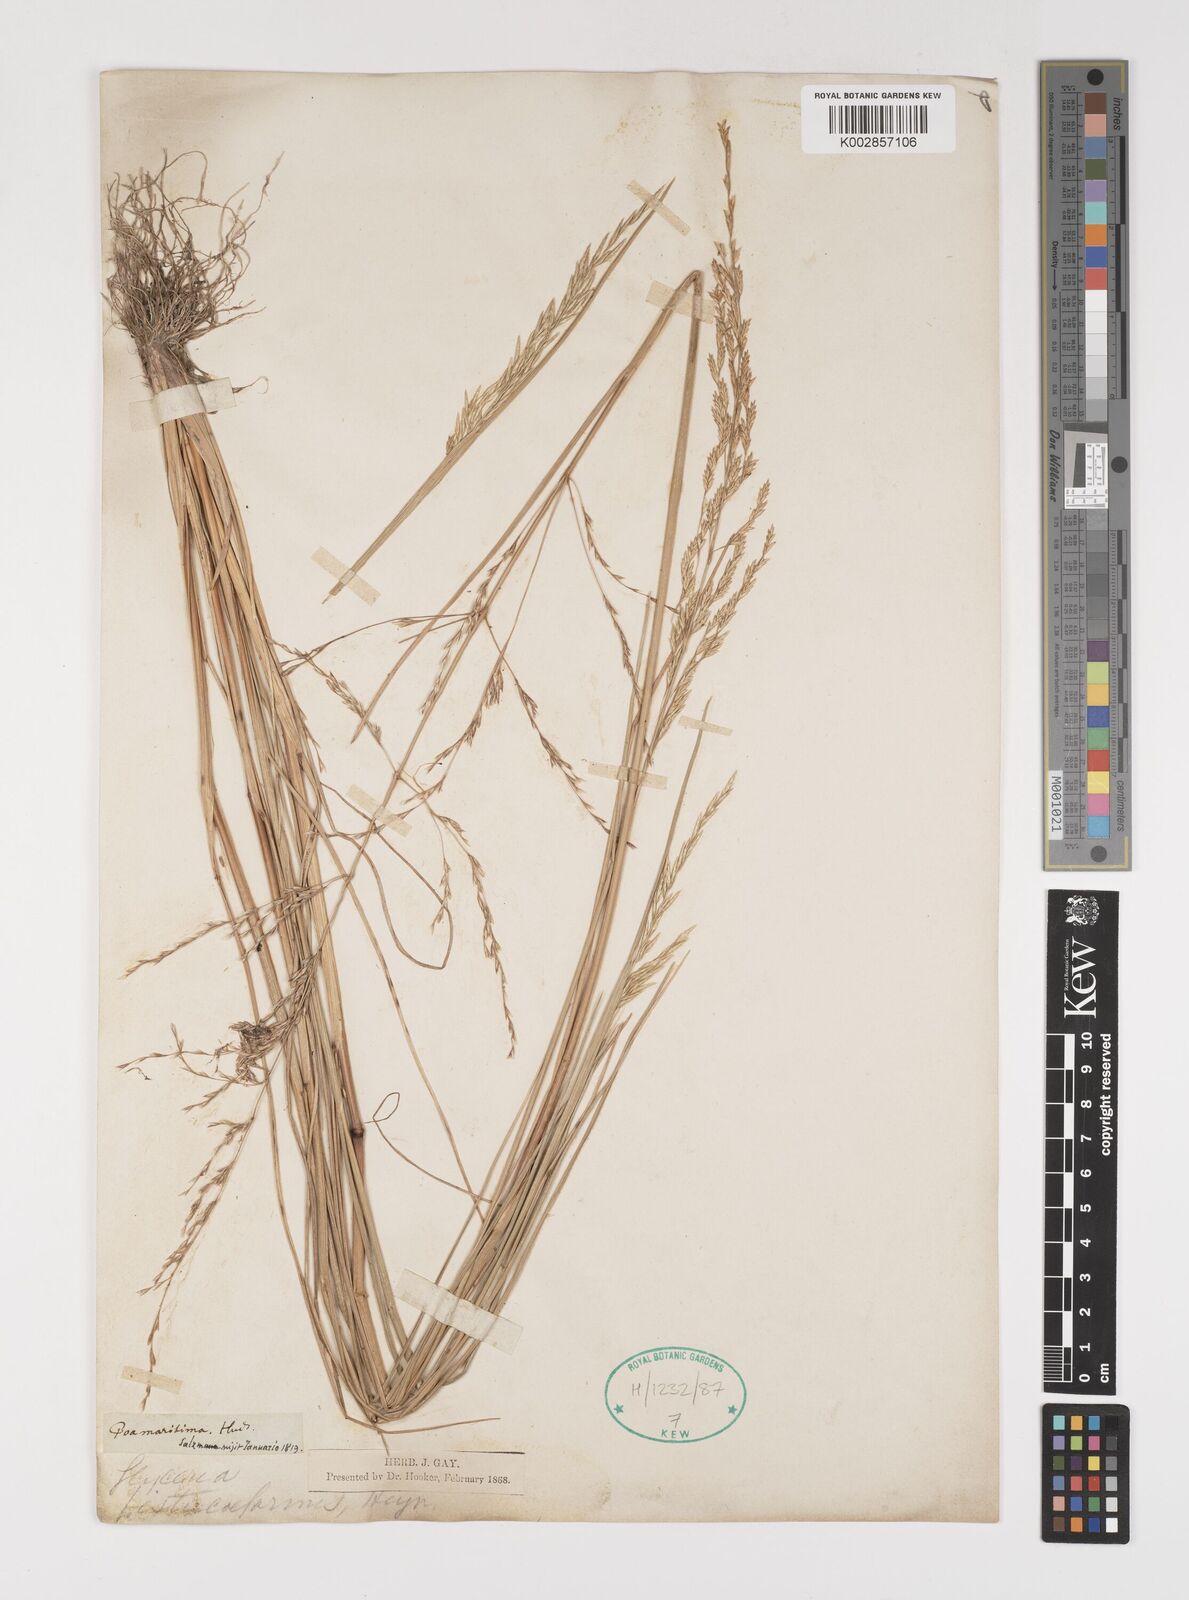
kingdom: Plantae
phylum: Tracheophyta
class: Liliopsida
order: Poales
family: Poaceae
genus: Puccinellia
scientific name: Puccinellia maritima
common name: Common saltmarsh grass
